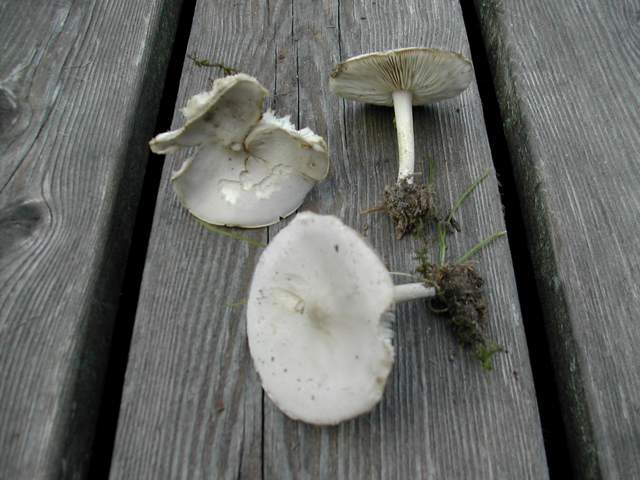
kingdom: Fungi
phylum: Basidiomycota
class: Agaricomycetes
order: Agaricales
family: Tricholomataceae
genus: Melanoleuca
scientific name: Melanoleuca exscissa
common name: gusten munkehat
